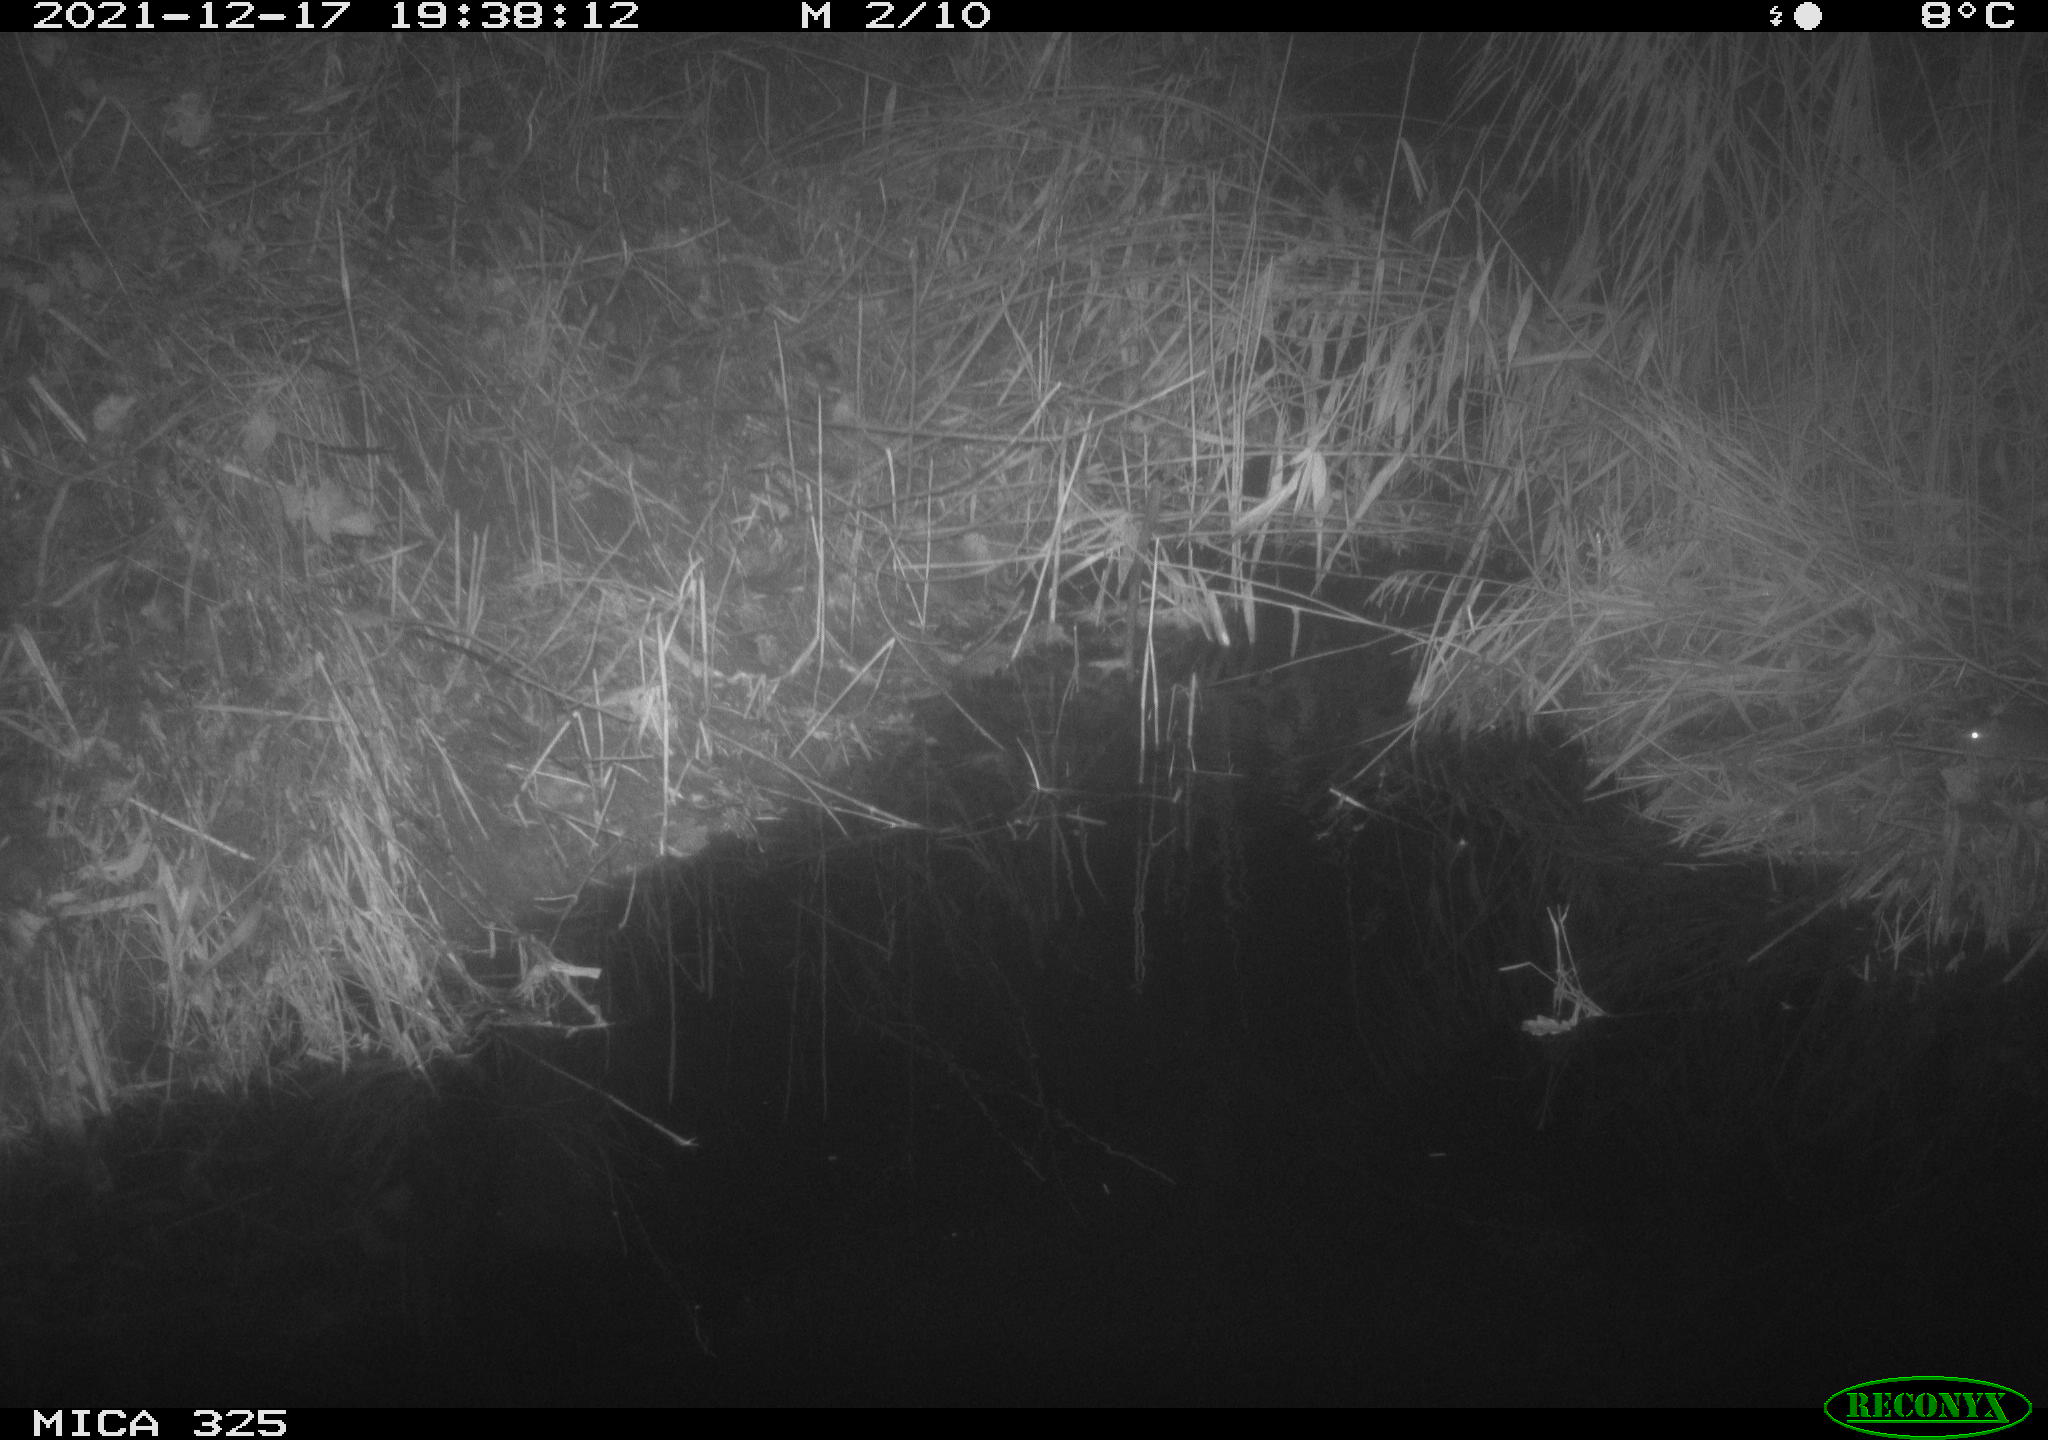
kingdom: Animalia
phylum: Chordata
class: Mammalia
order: Rodentia
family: Muridae
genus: Rattus
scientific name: Rattus norvegicus
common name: Brown rat
